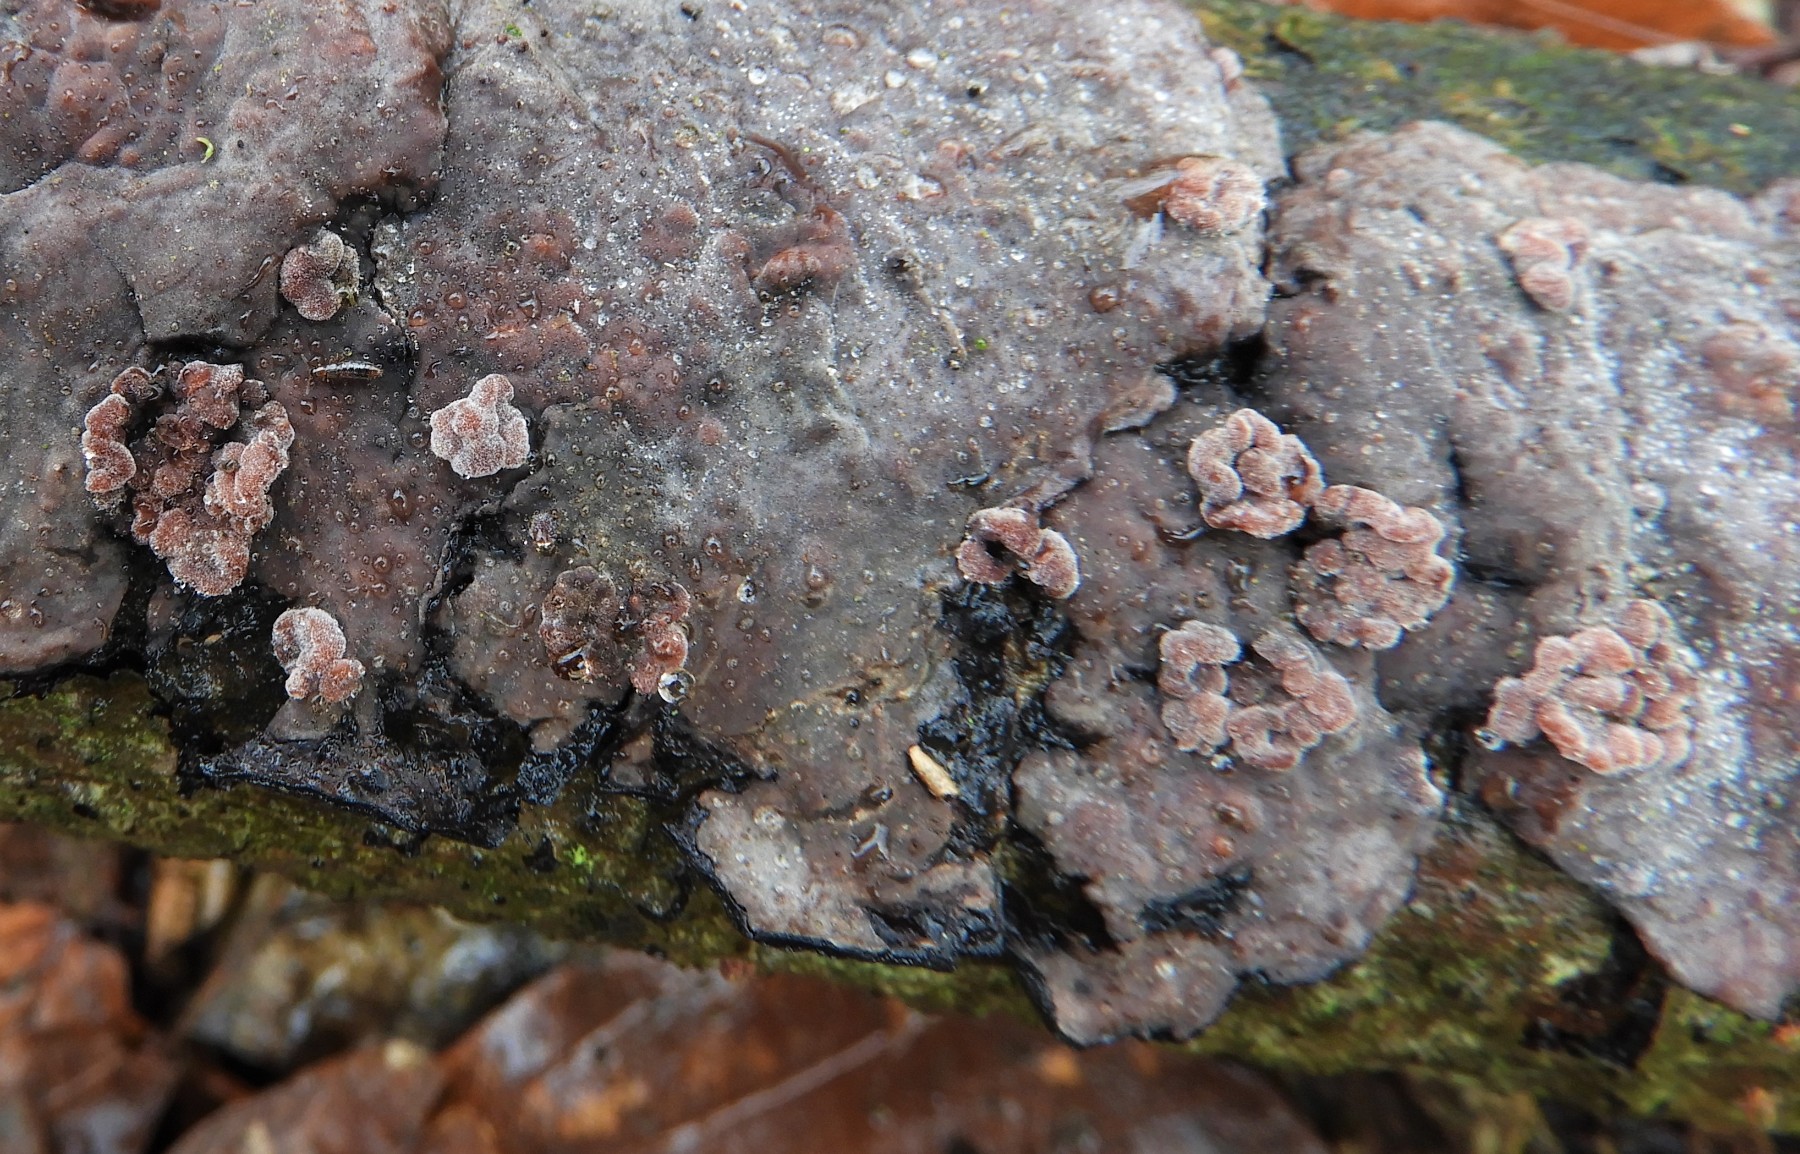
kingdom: Fungi
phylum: Basidiomycota
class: Agaricomycetes
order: Russulales
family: Peniophoraceae
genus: Peniophora
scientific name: Peniophora quercina
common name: ege-voksskind
